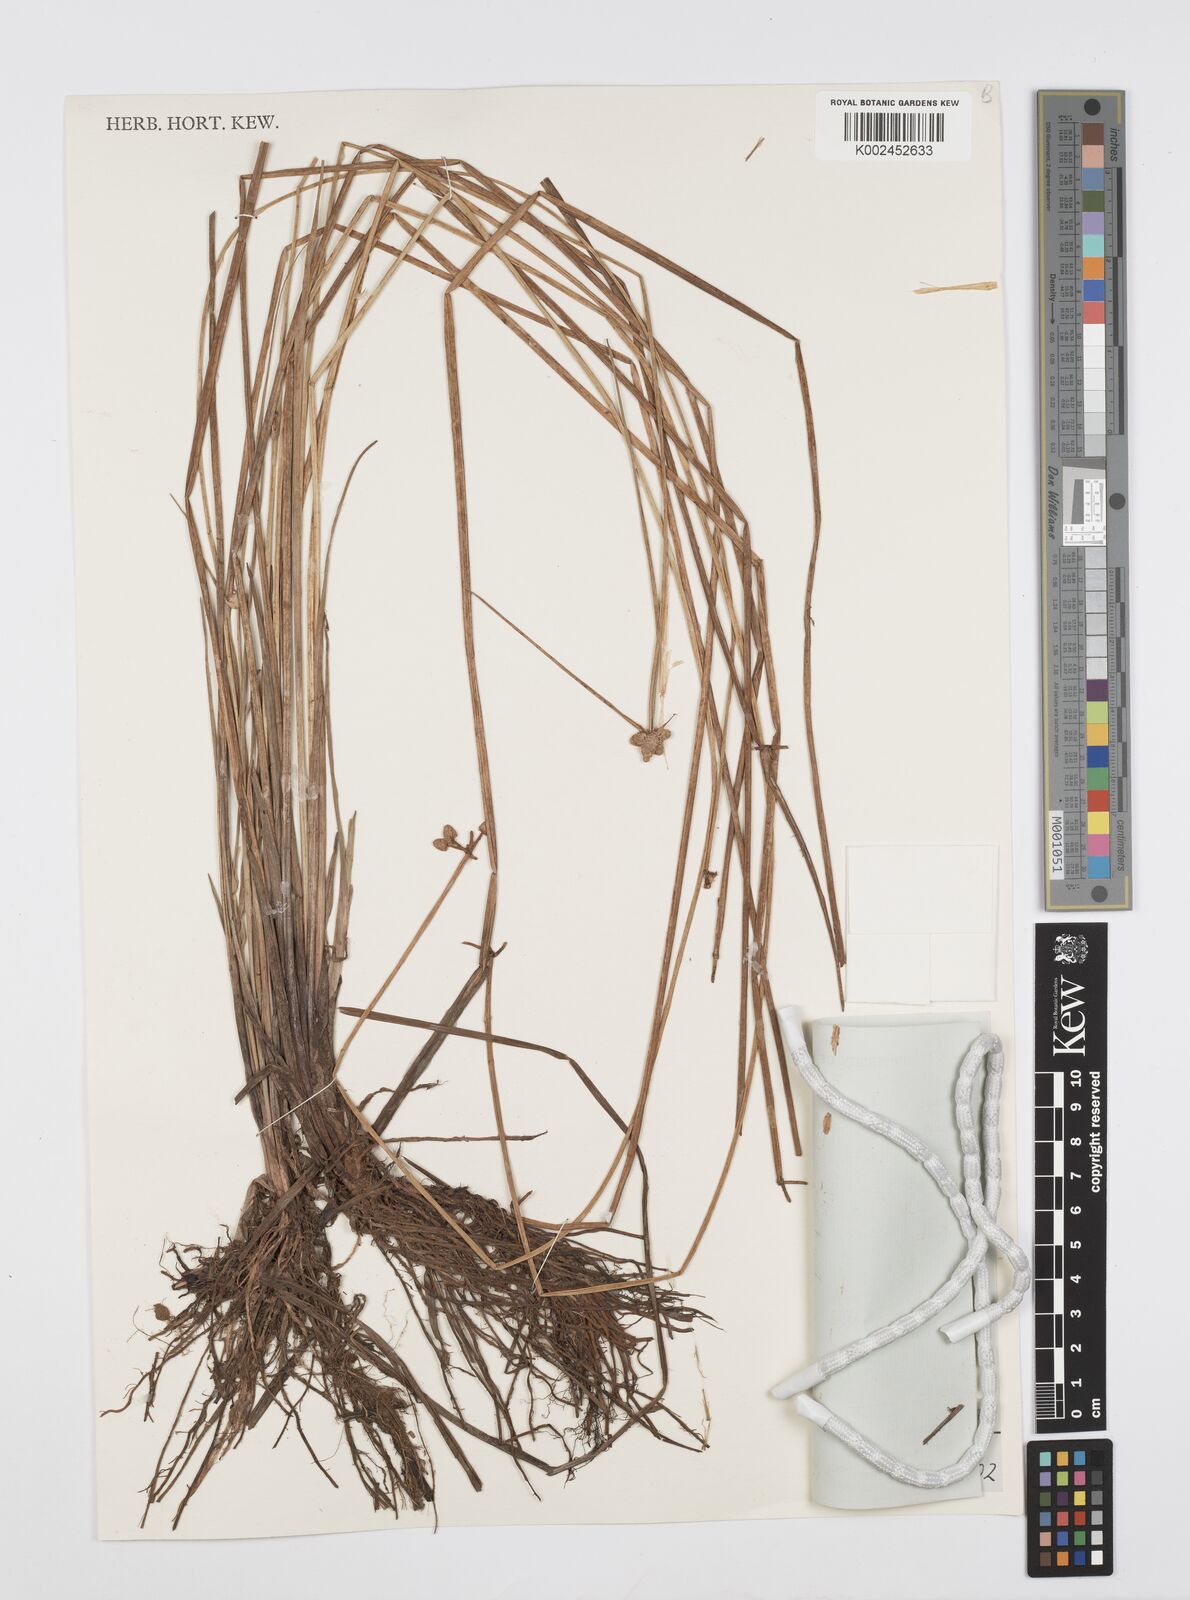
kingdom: Plantae
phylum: Tracheophyta
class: Liliopsida
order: Poales
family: Cyperaceae
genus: Cyperus
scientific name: Cyperus albescens
